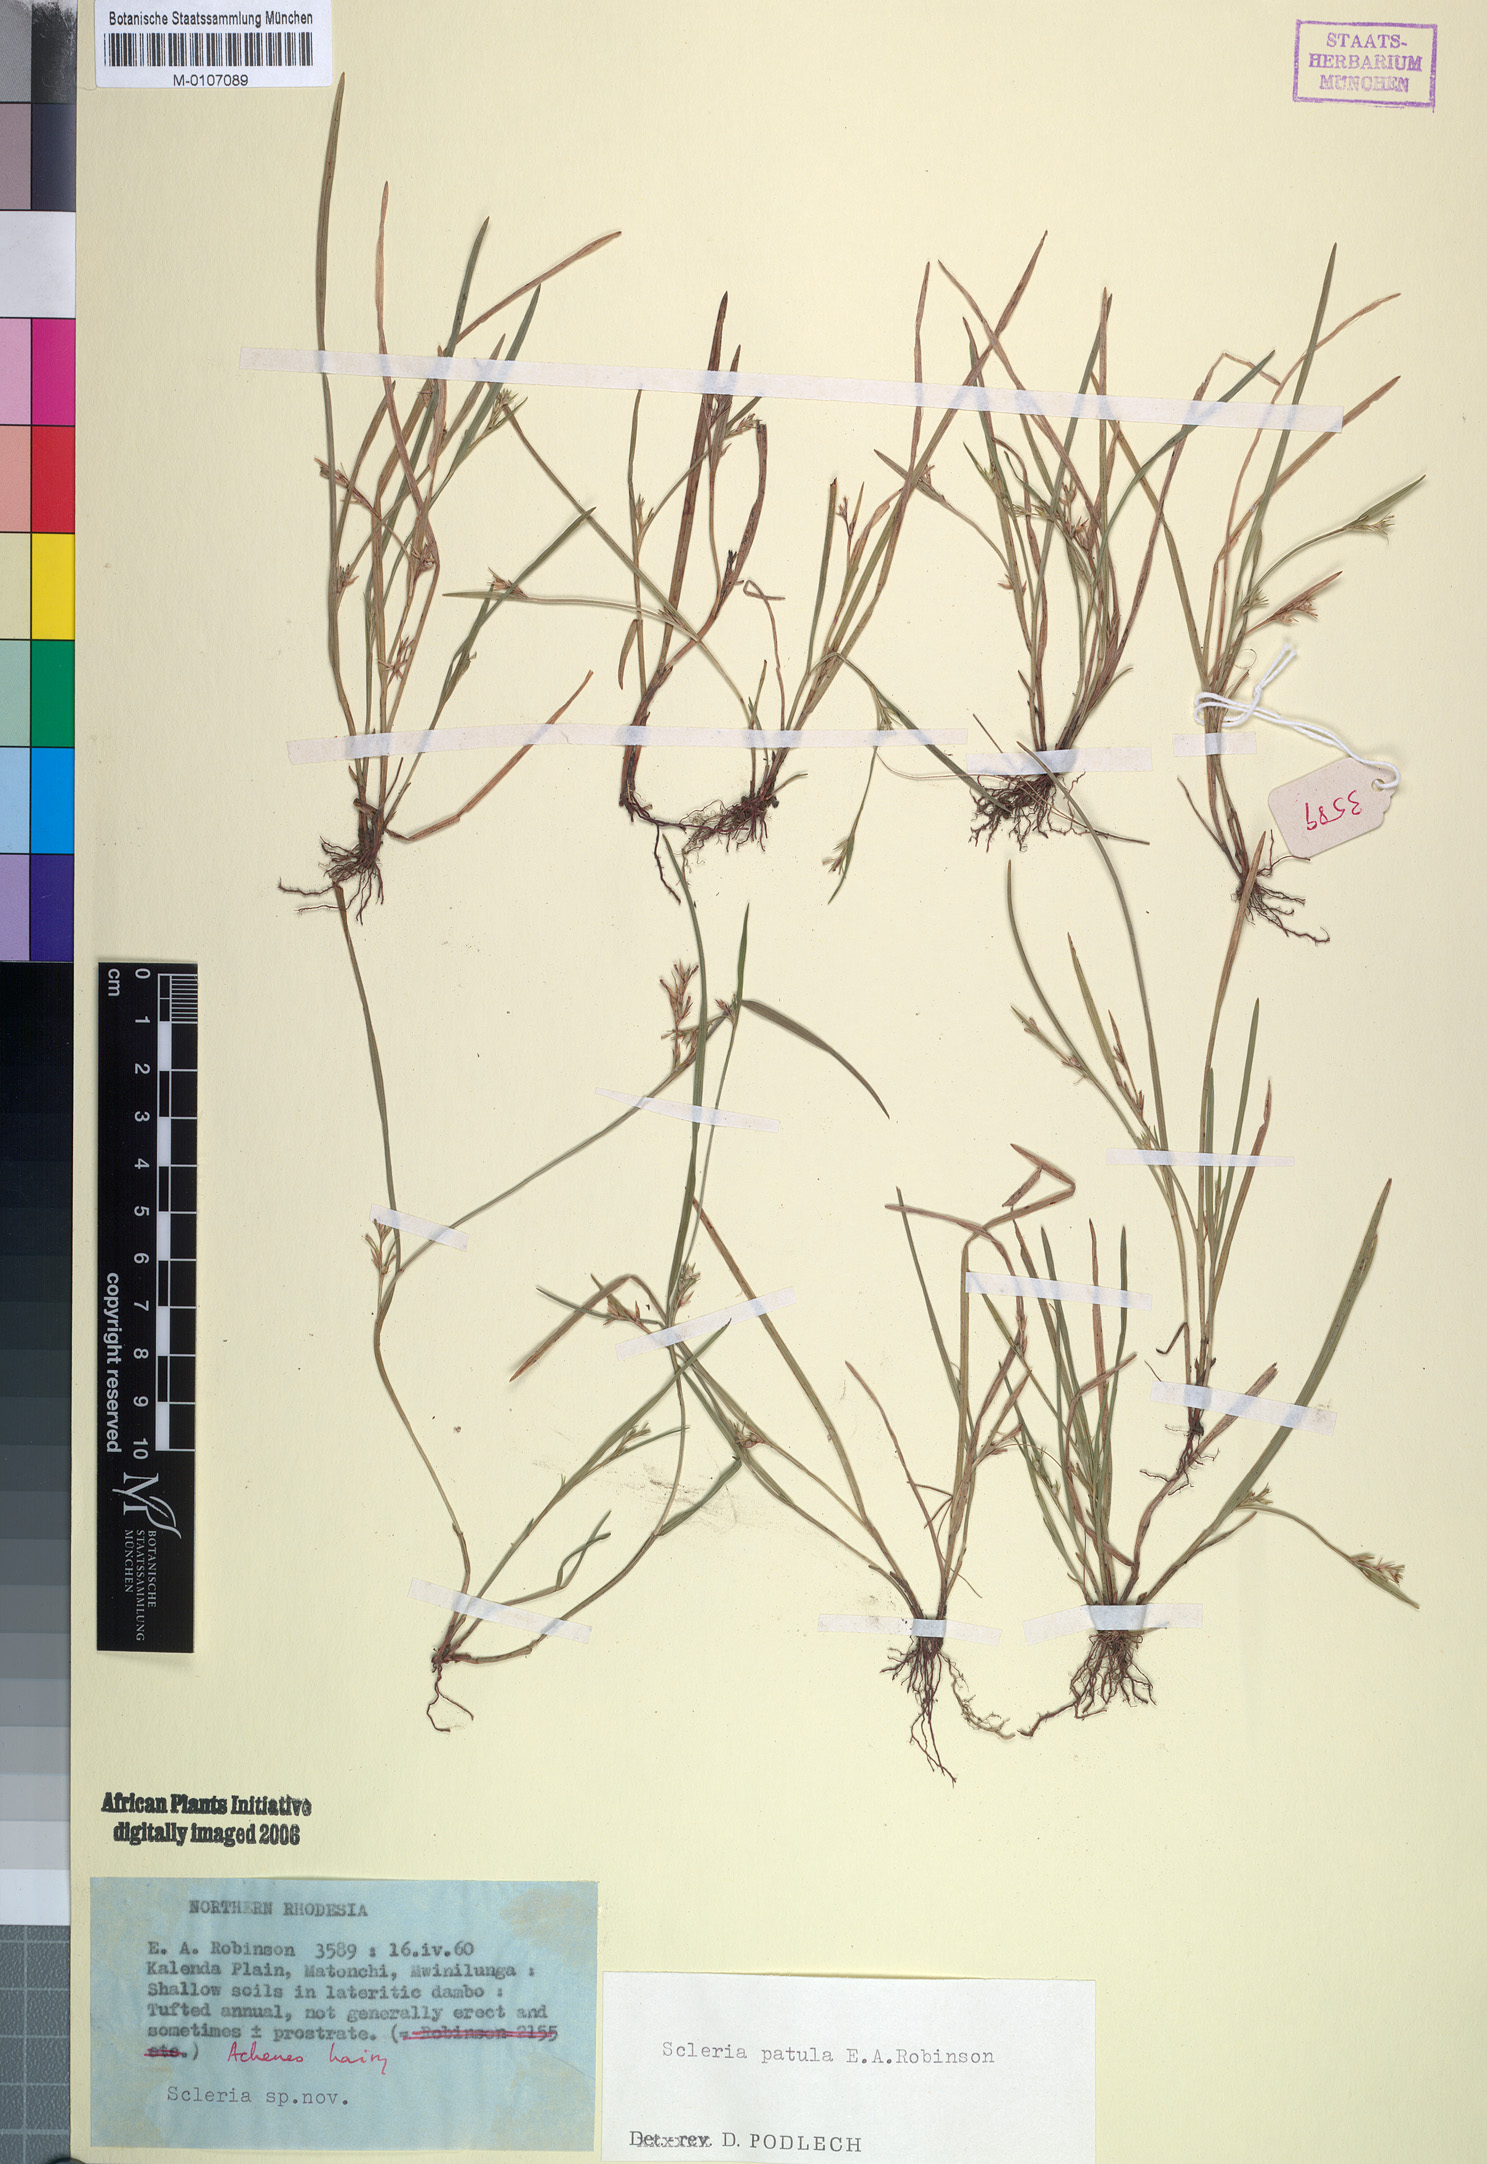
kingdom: Plantae
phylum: Tracheophyta
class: Liliopsida
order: Poales
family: Cyperaceae
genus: Scleria
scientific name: Scleria patula
